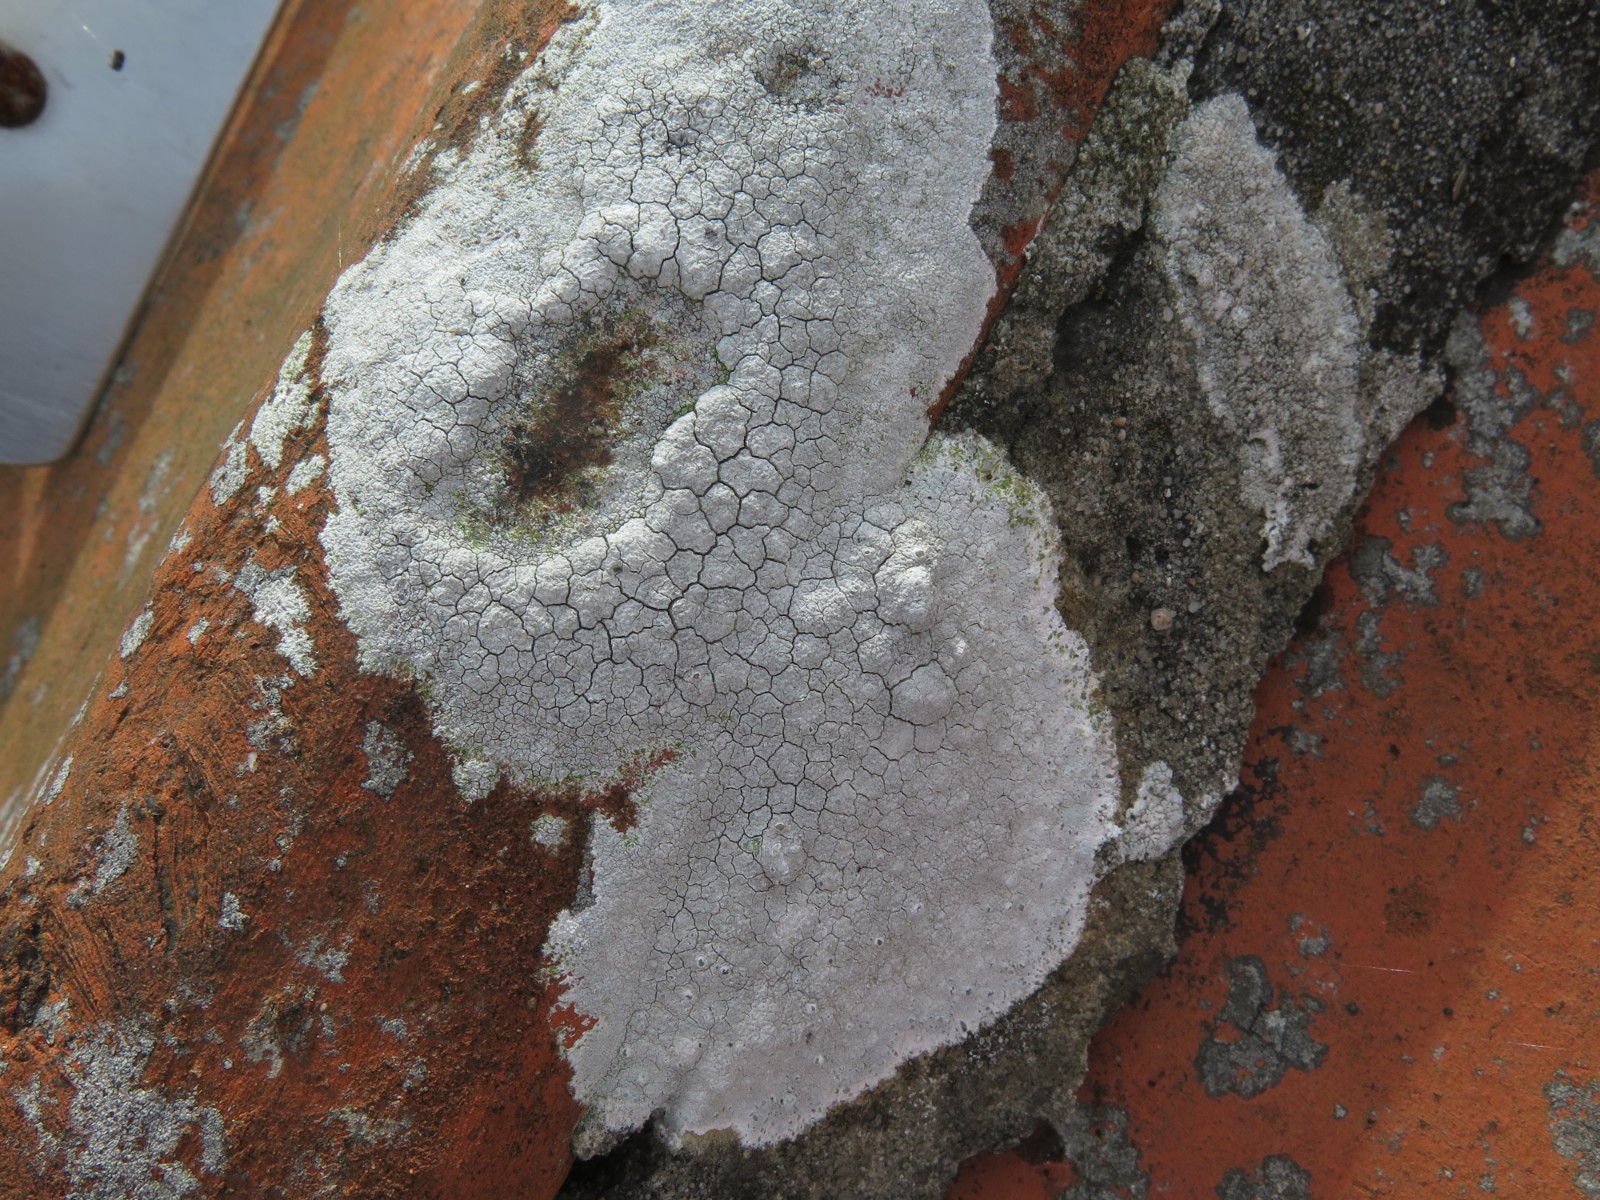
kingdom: Fungi
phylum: Ascomycota
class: Lecanoromycetes
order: Lecanorales
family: Lecanoraceae
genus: Glaucomaria
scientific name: Glaucomaria rupicola
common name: stengærde-kantskivelav
